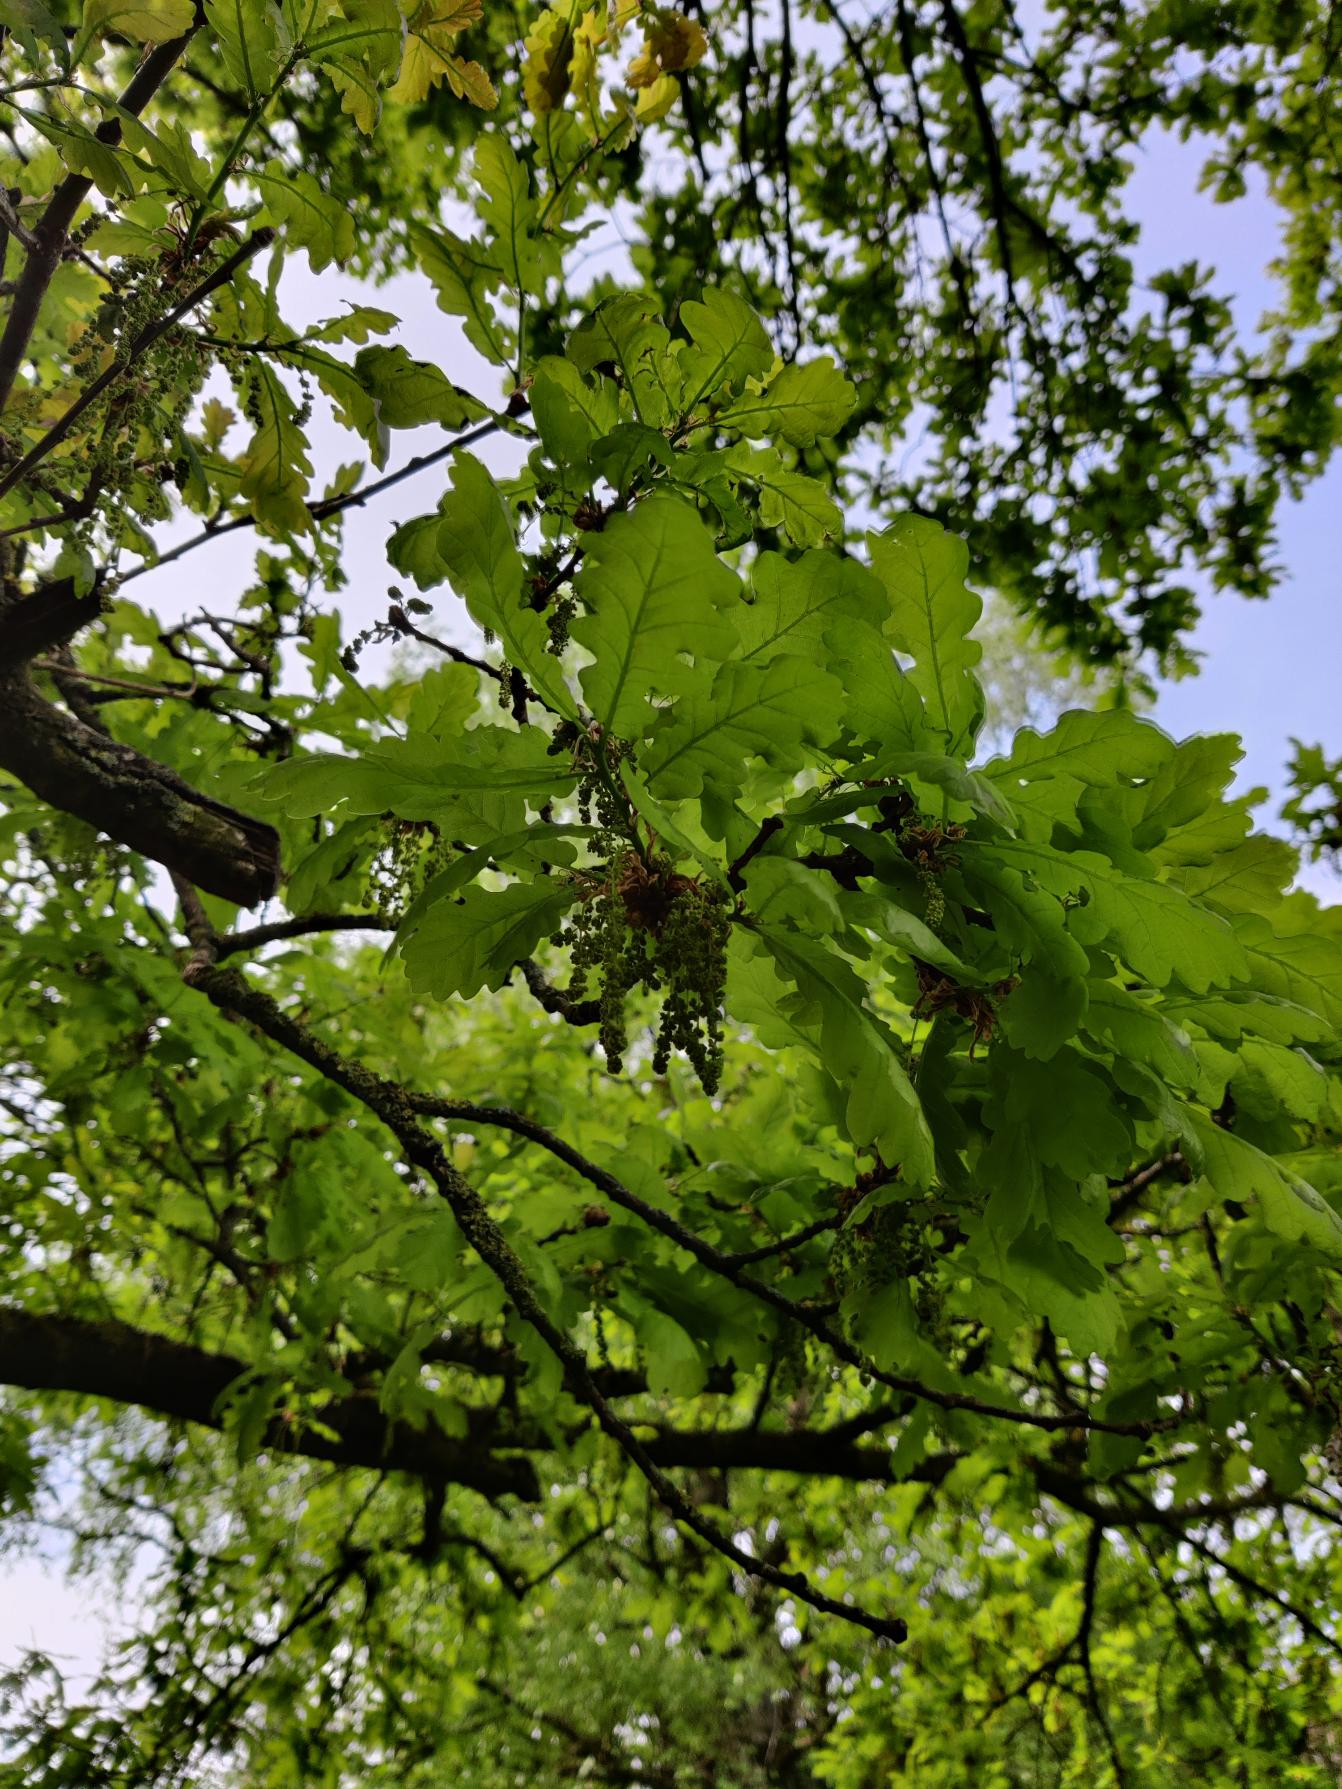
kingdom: Plantae
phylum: Tracheophyta
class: Magnoliopsida
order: Fagales
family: Fagaceae
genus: Quercus
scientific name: Quercus robur
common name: Stilk-eg/almindelig eg
